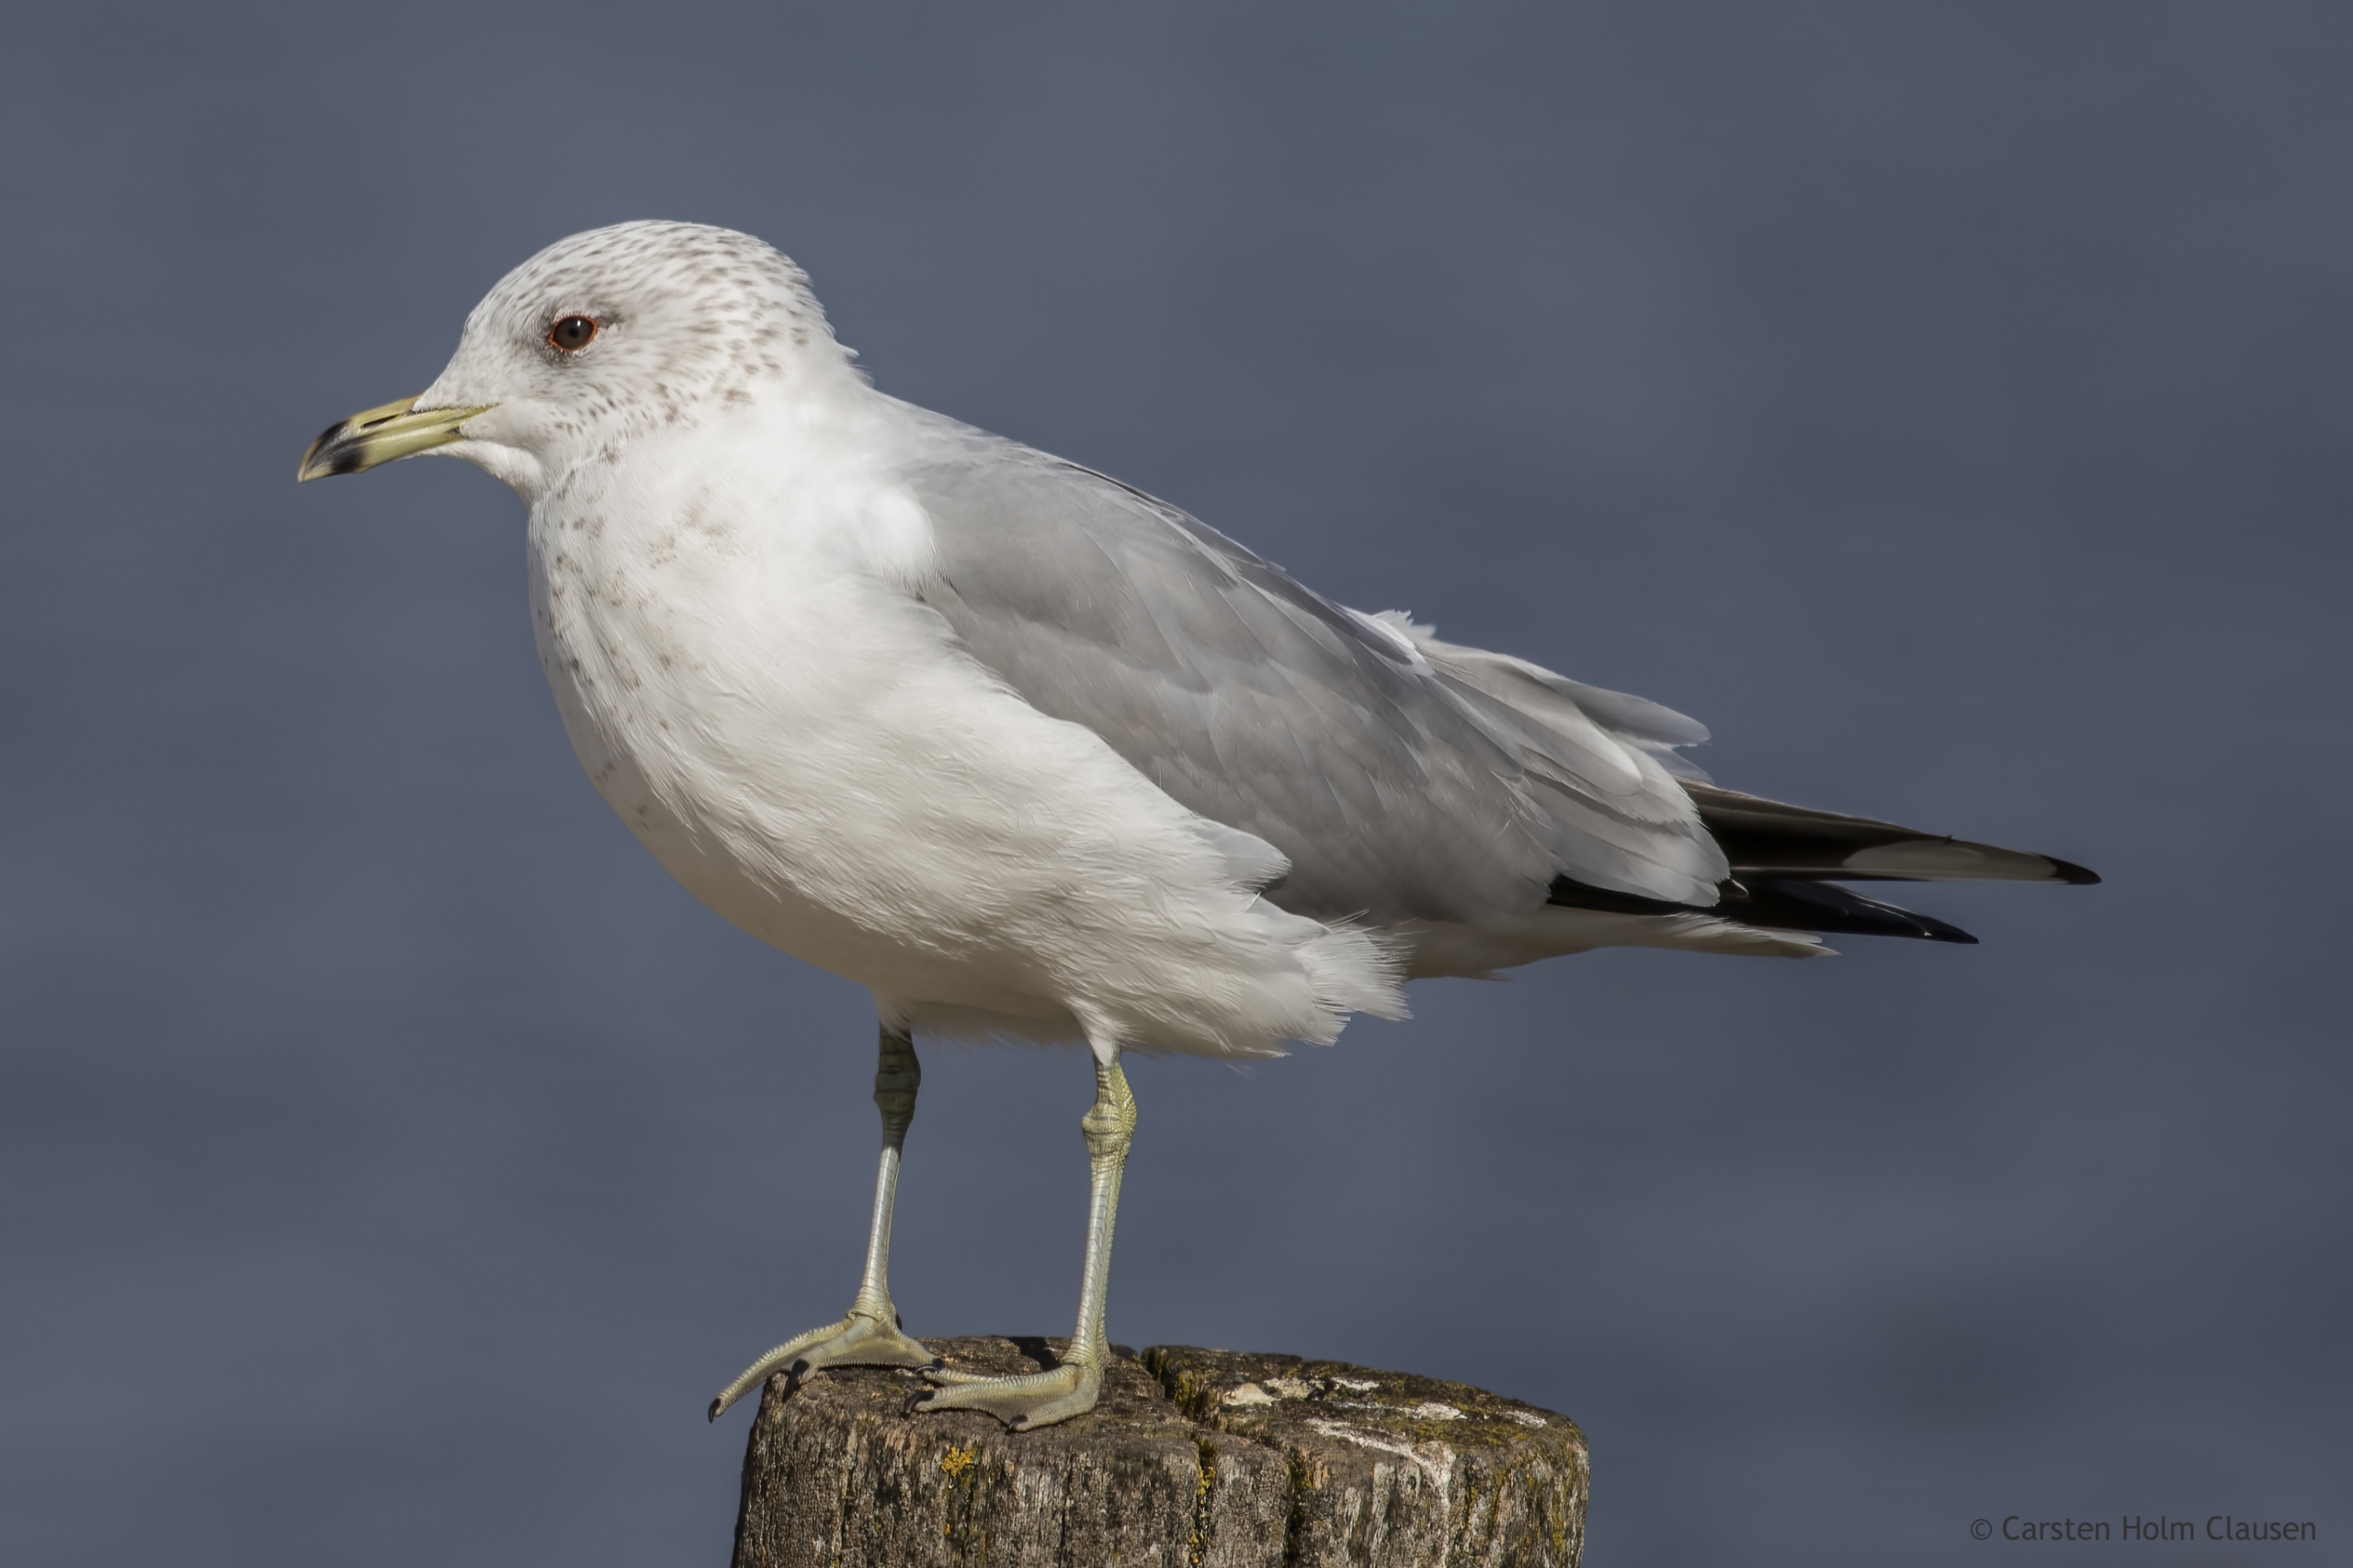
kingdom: Animalia
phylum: Chordata
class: Aves
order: Charadriiformes
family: Laridae
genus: Larus
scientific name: Larus canus
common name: Stormmåge
